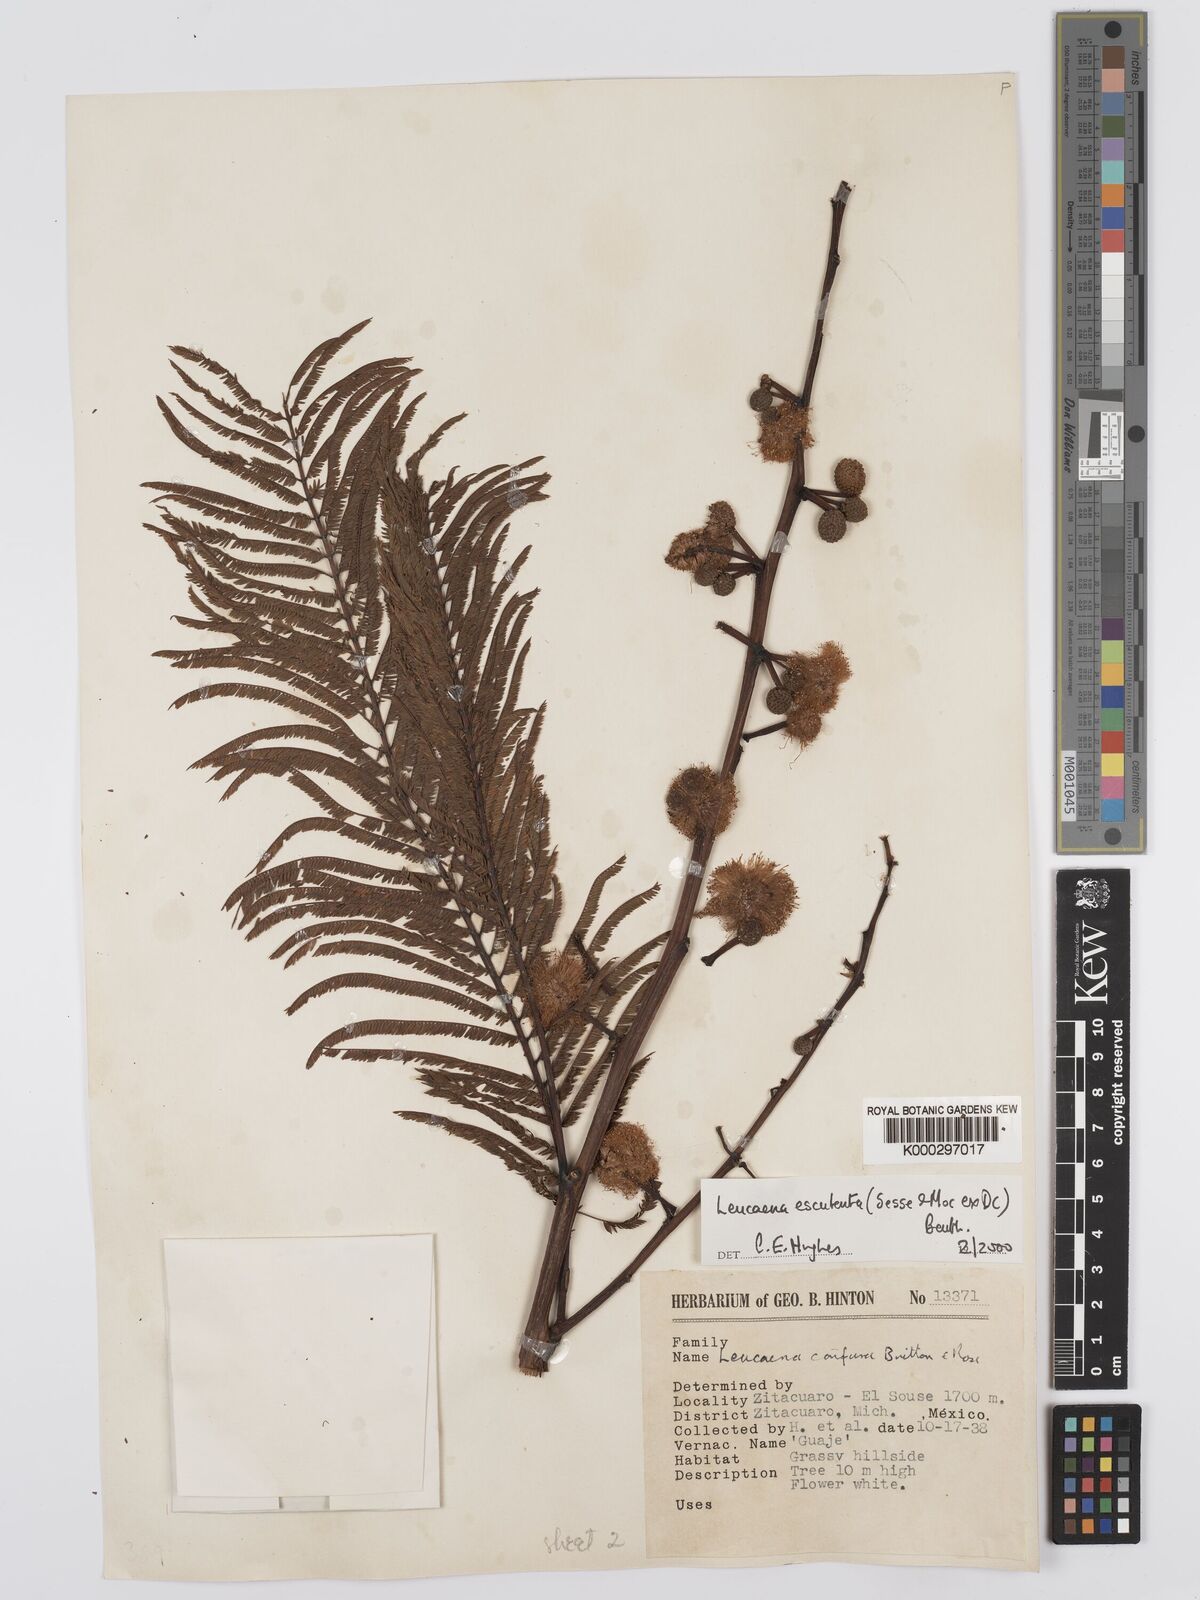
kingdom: Plantae
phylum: Tracheophyta
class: Magnoliopsida
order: Fabales
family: Fabaceae
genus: Leucaena
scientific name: Leucaena esculenta
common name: Guaje
